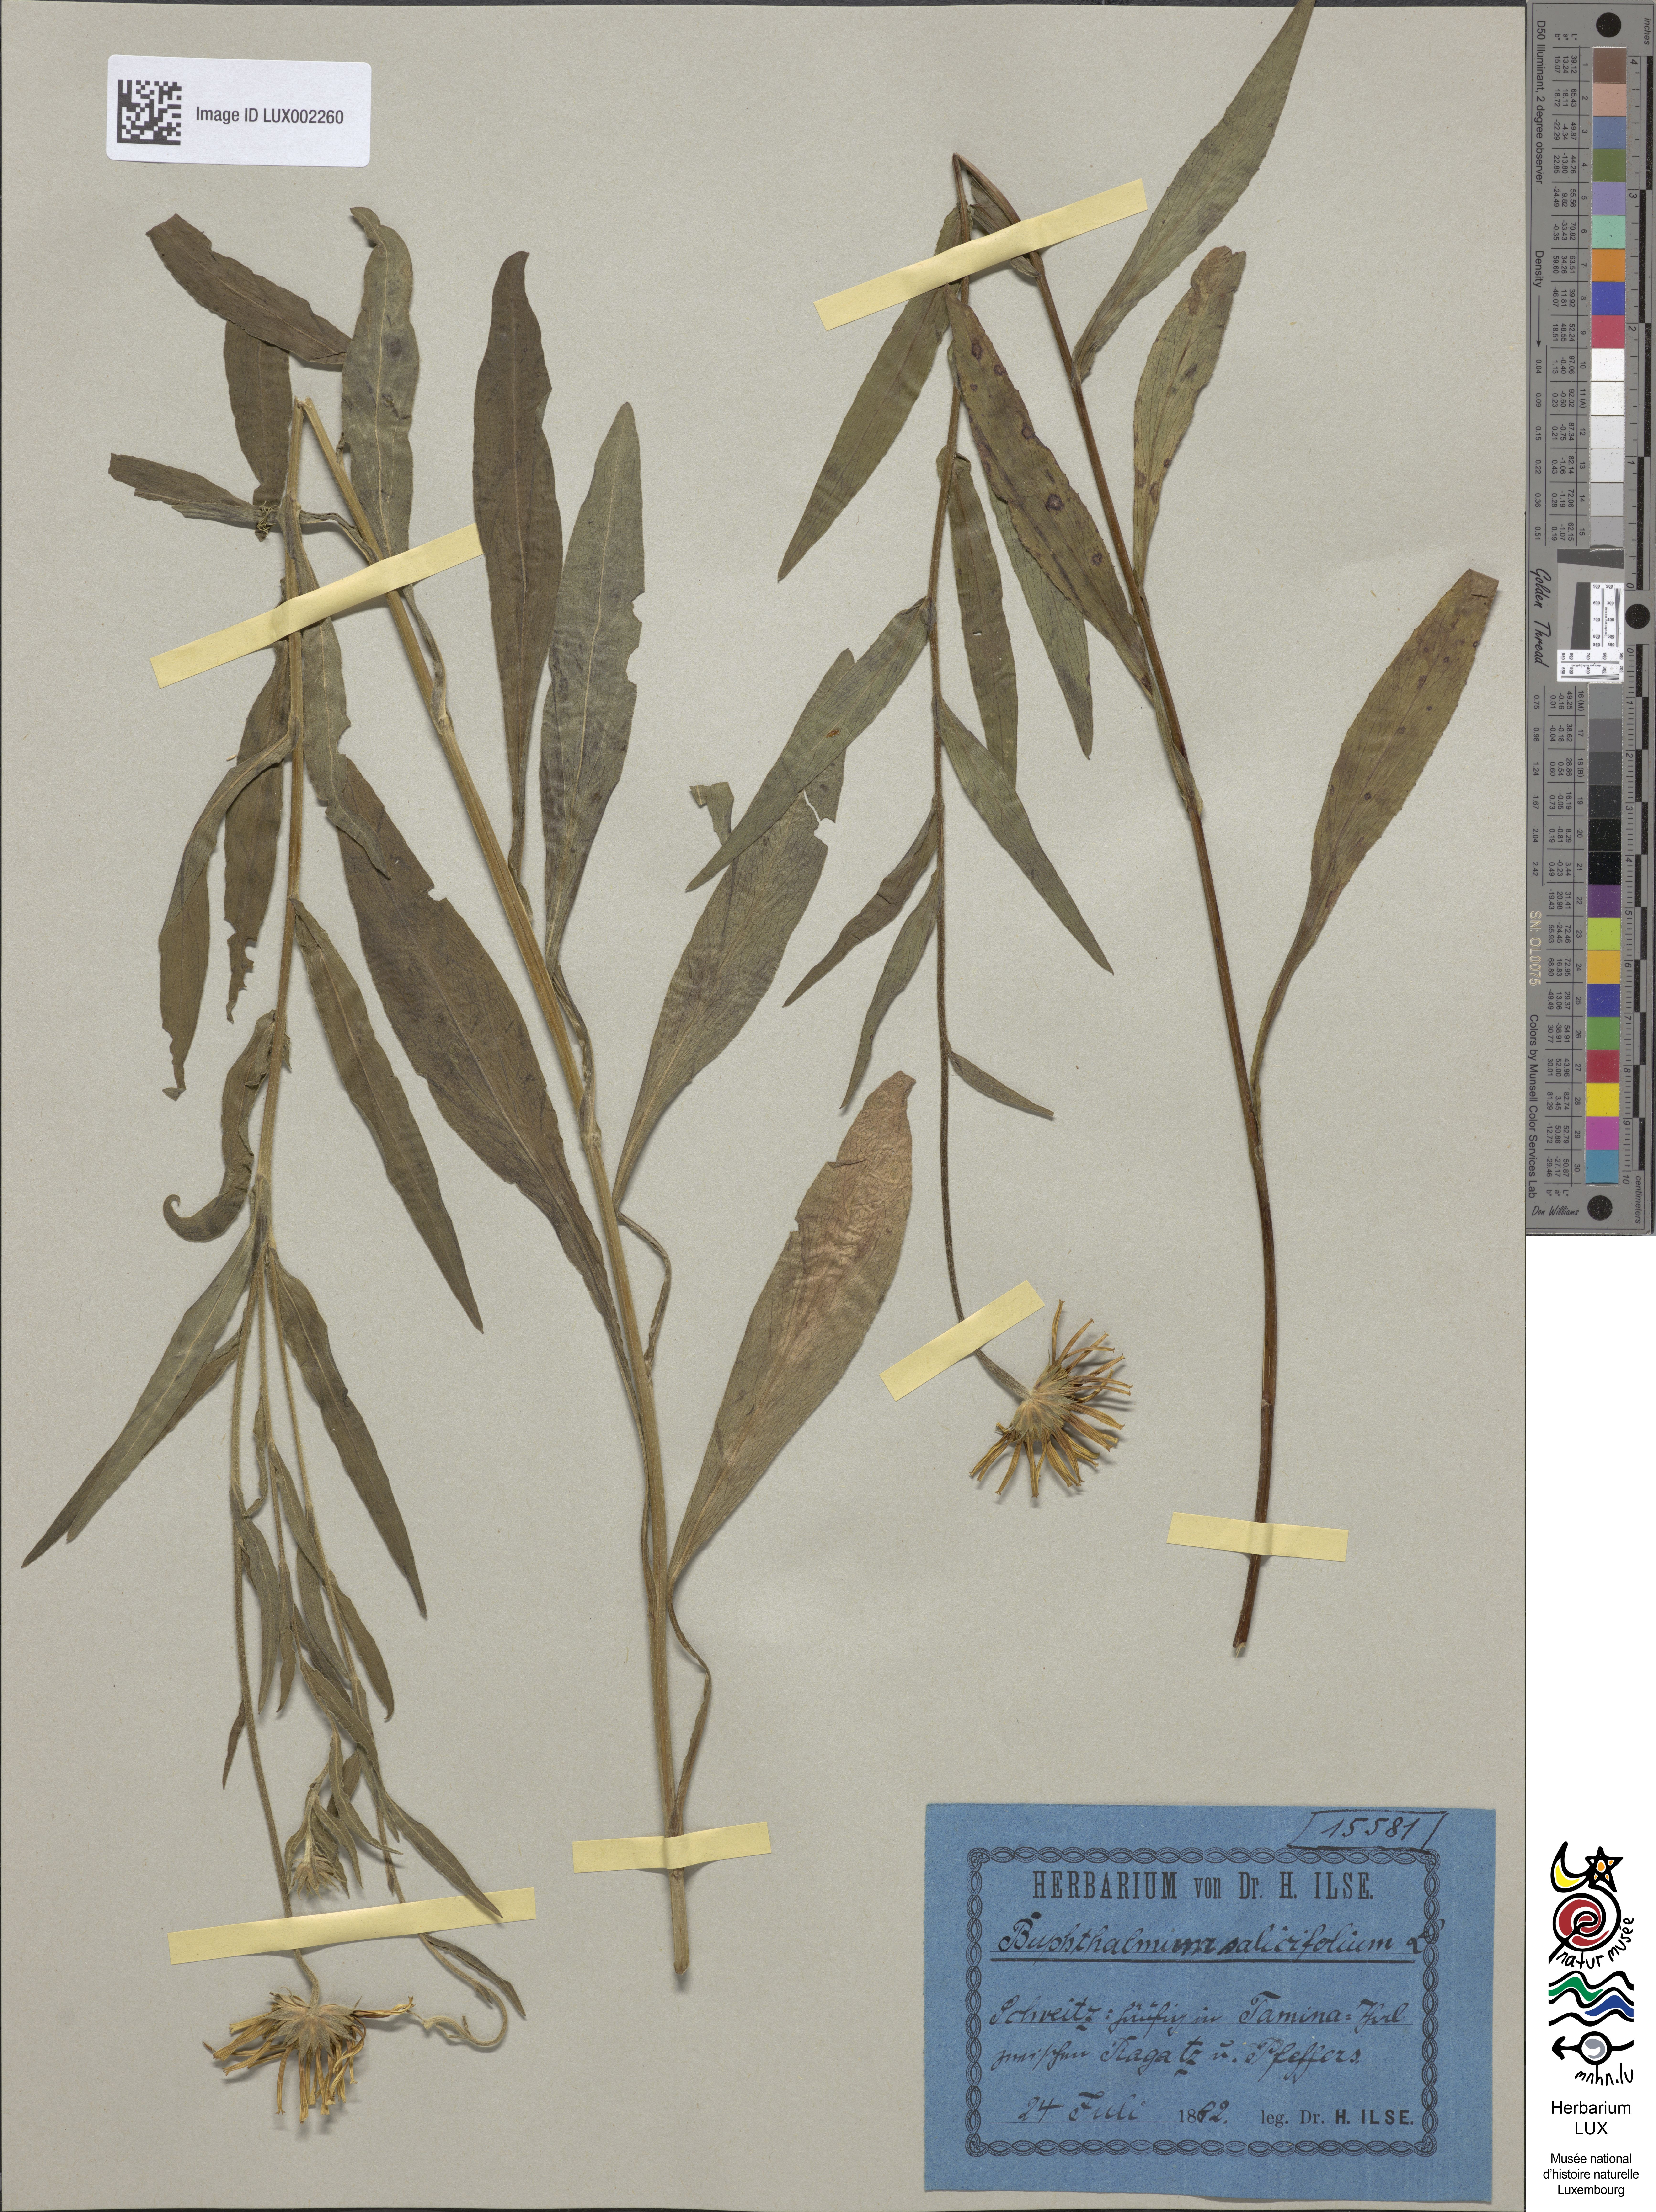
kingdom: Plantae
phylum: Tracheophyta
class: Magnoliopsida
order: Asterales
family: Asteraceae
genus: Buphthalmum
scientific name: Buphthalmum salicifolium
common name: Willow-leaved yellow-oxeye
